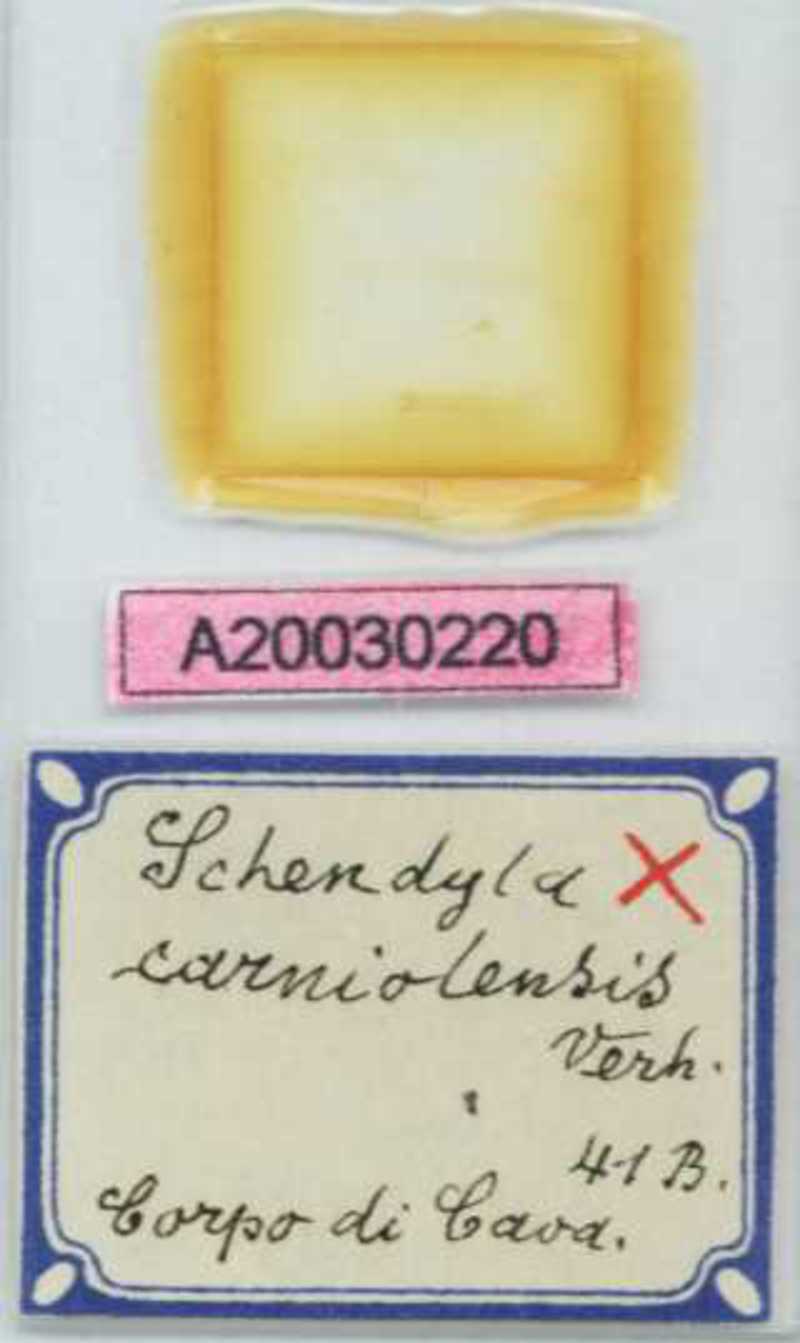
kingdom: Animalia
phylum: Arthropoda
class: Chilopoda
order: Geophilomorpha
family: Schendylidae
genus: Schendyla
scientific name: Schendyla carniolensis
